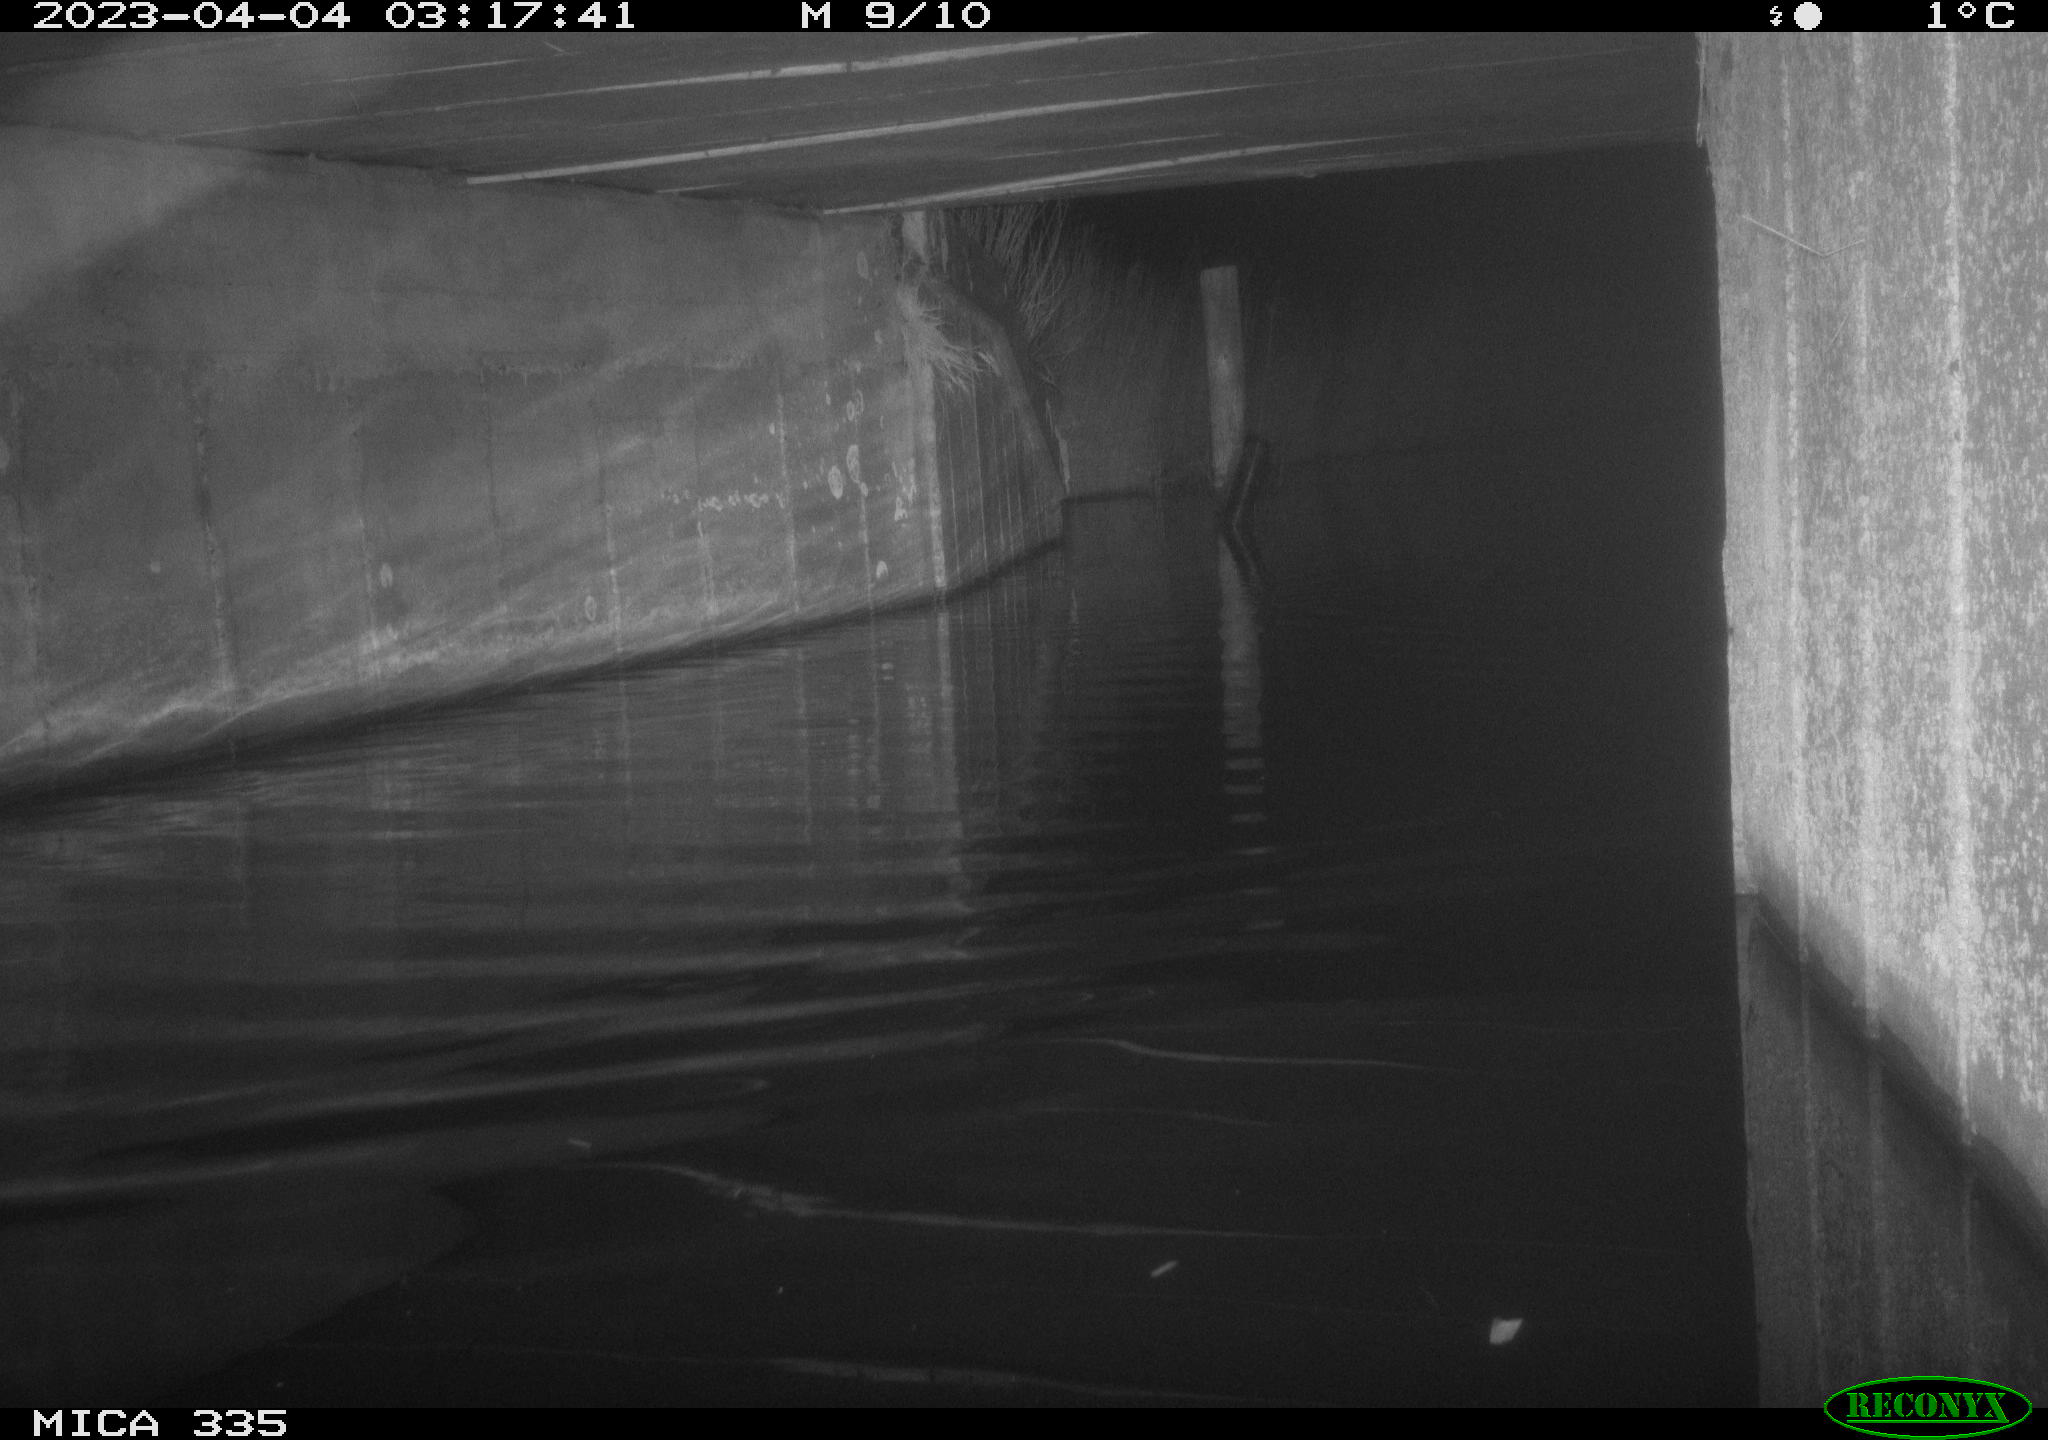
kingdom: Animalia
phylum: Chordata
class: Aves
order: Anseriformes
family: Anatidae
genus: Anas
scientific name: Anas
